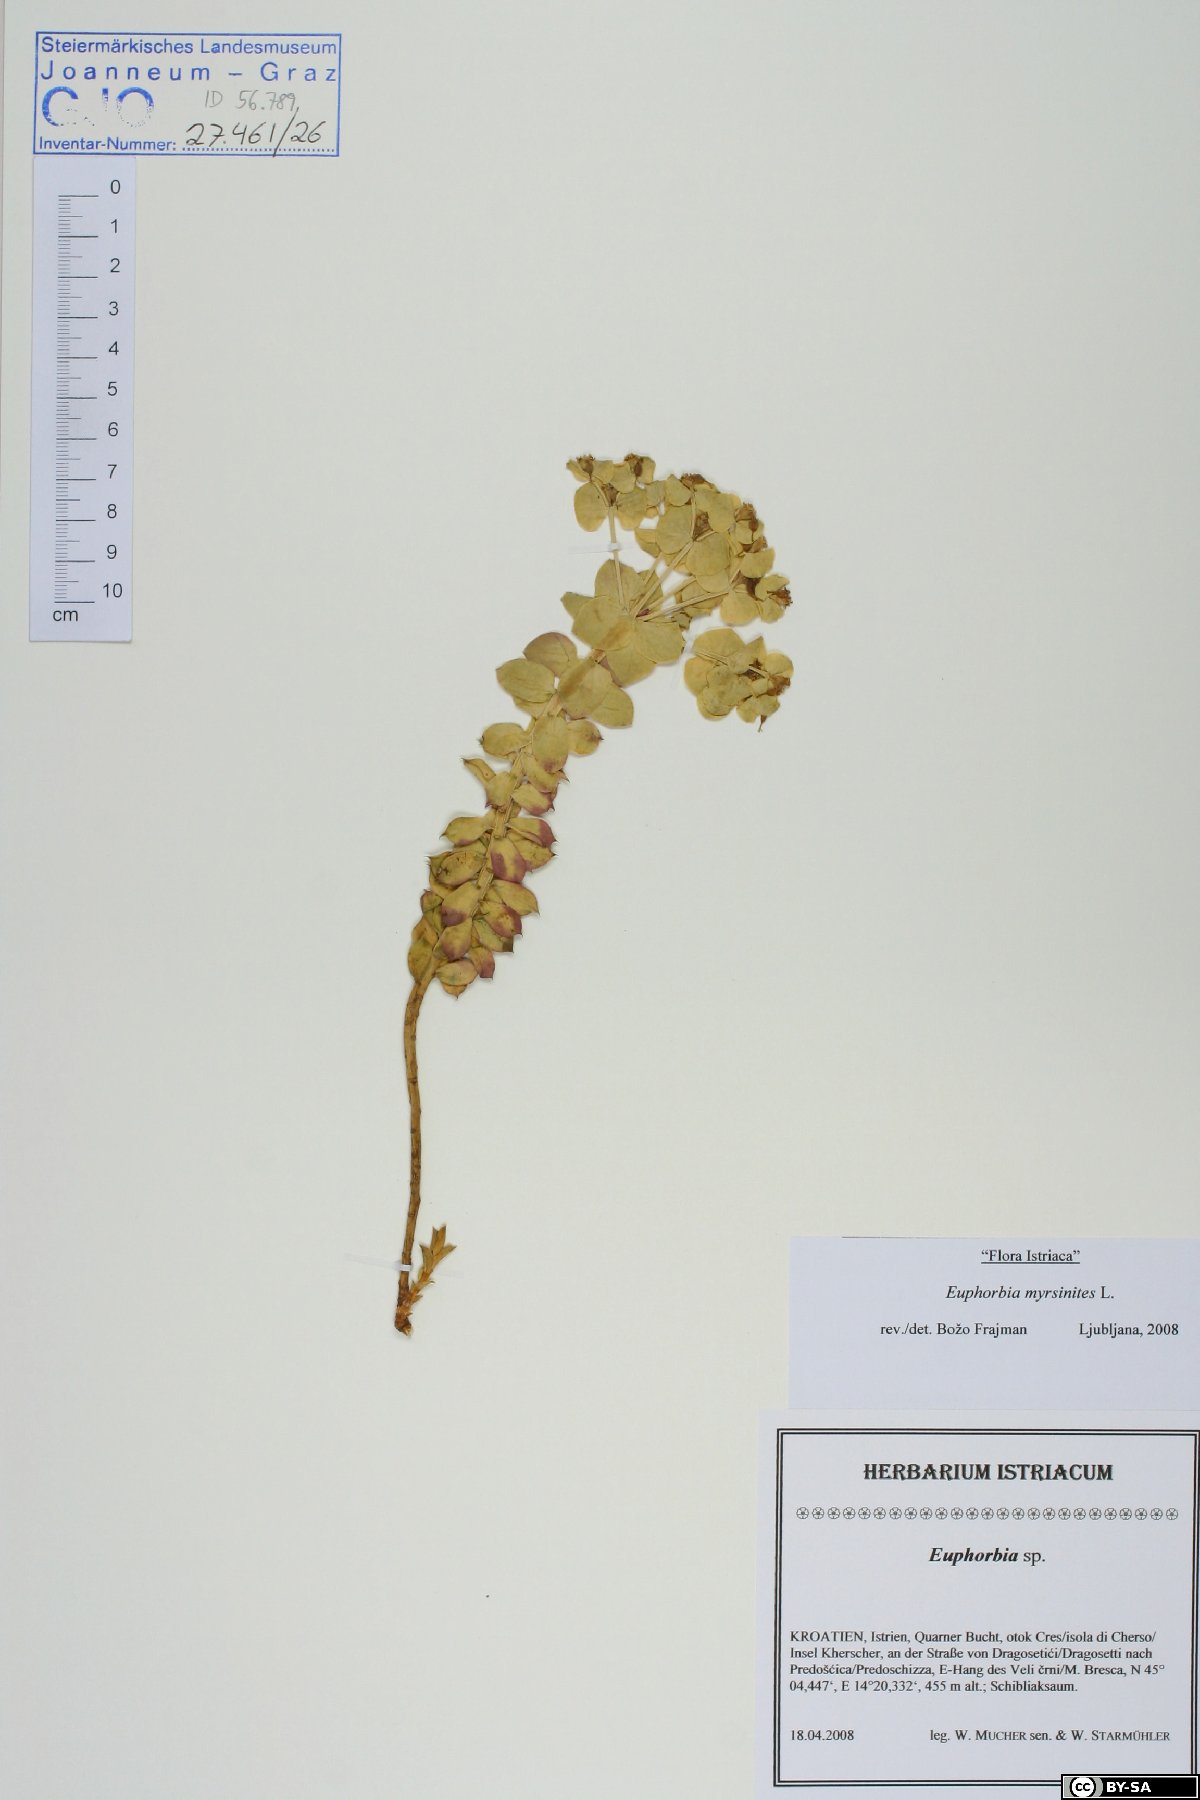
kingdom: Plantae
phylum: Tracheophyta
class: Magnoliopsida
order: Malpighiales
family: Euphorbiaceae
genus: Euphorbia
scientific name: Euphorbia myrsinites
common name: Myrtle spurge
